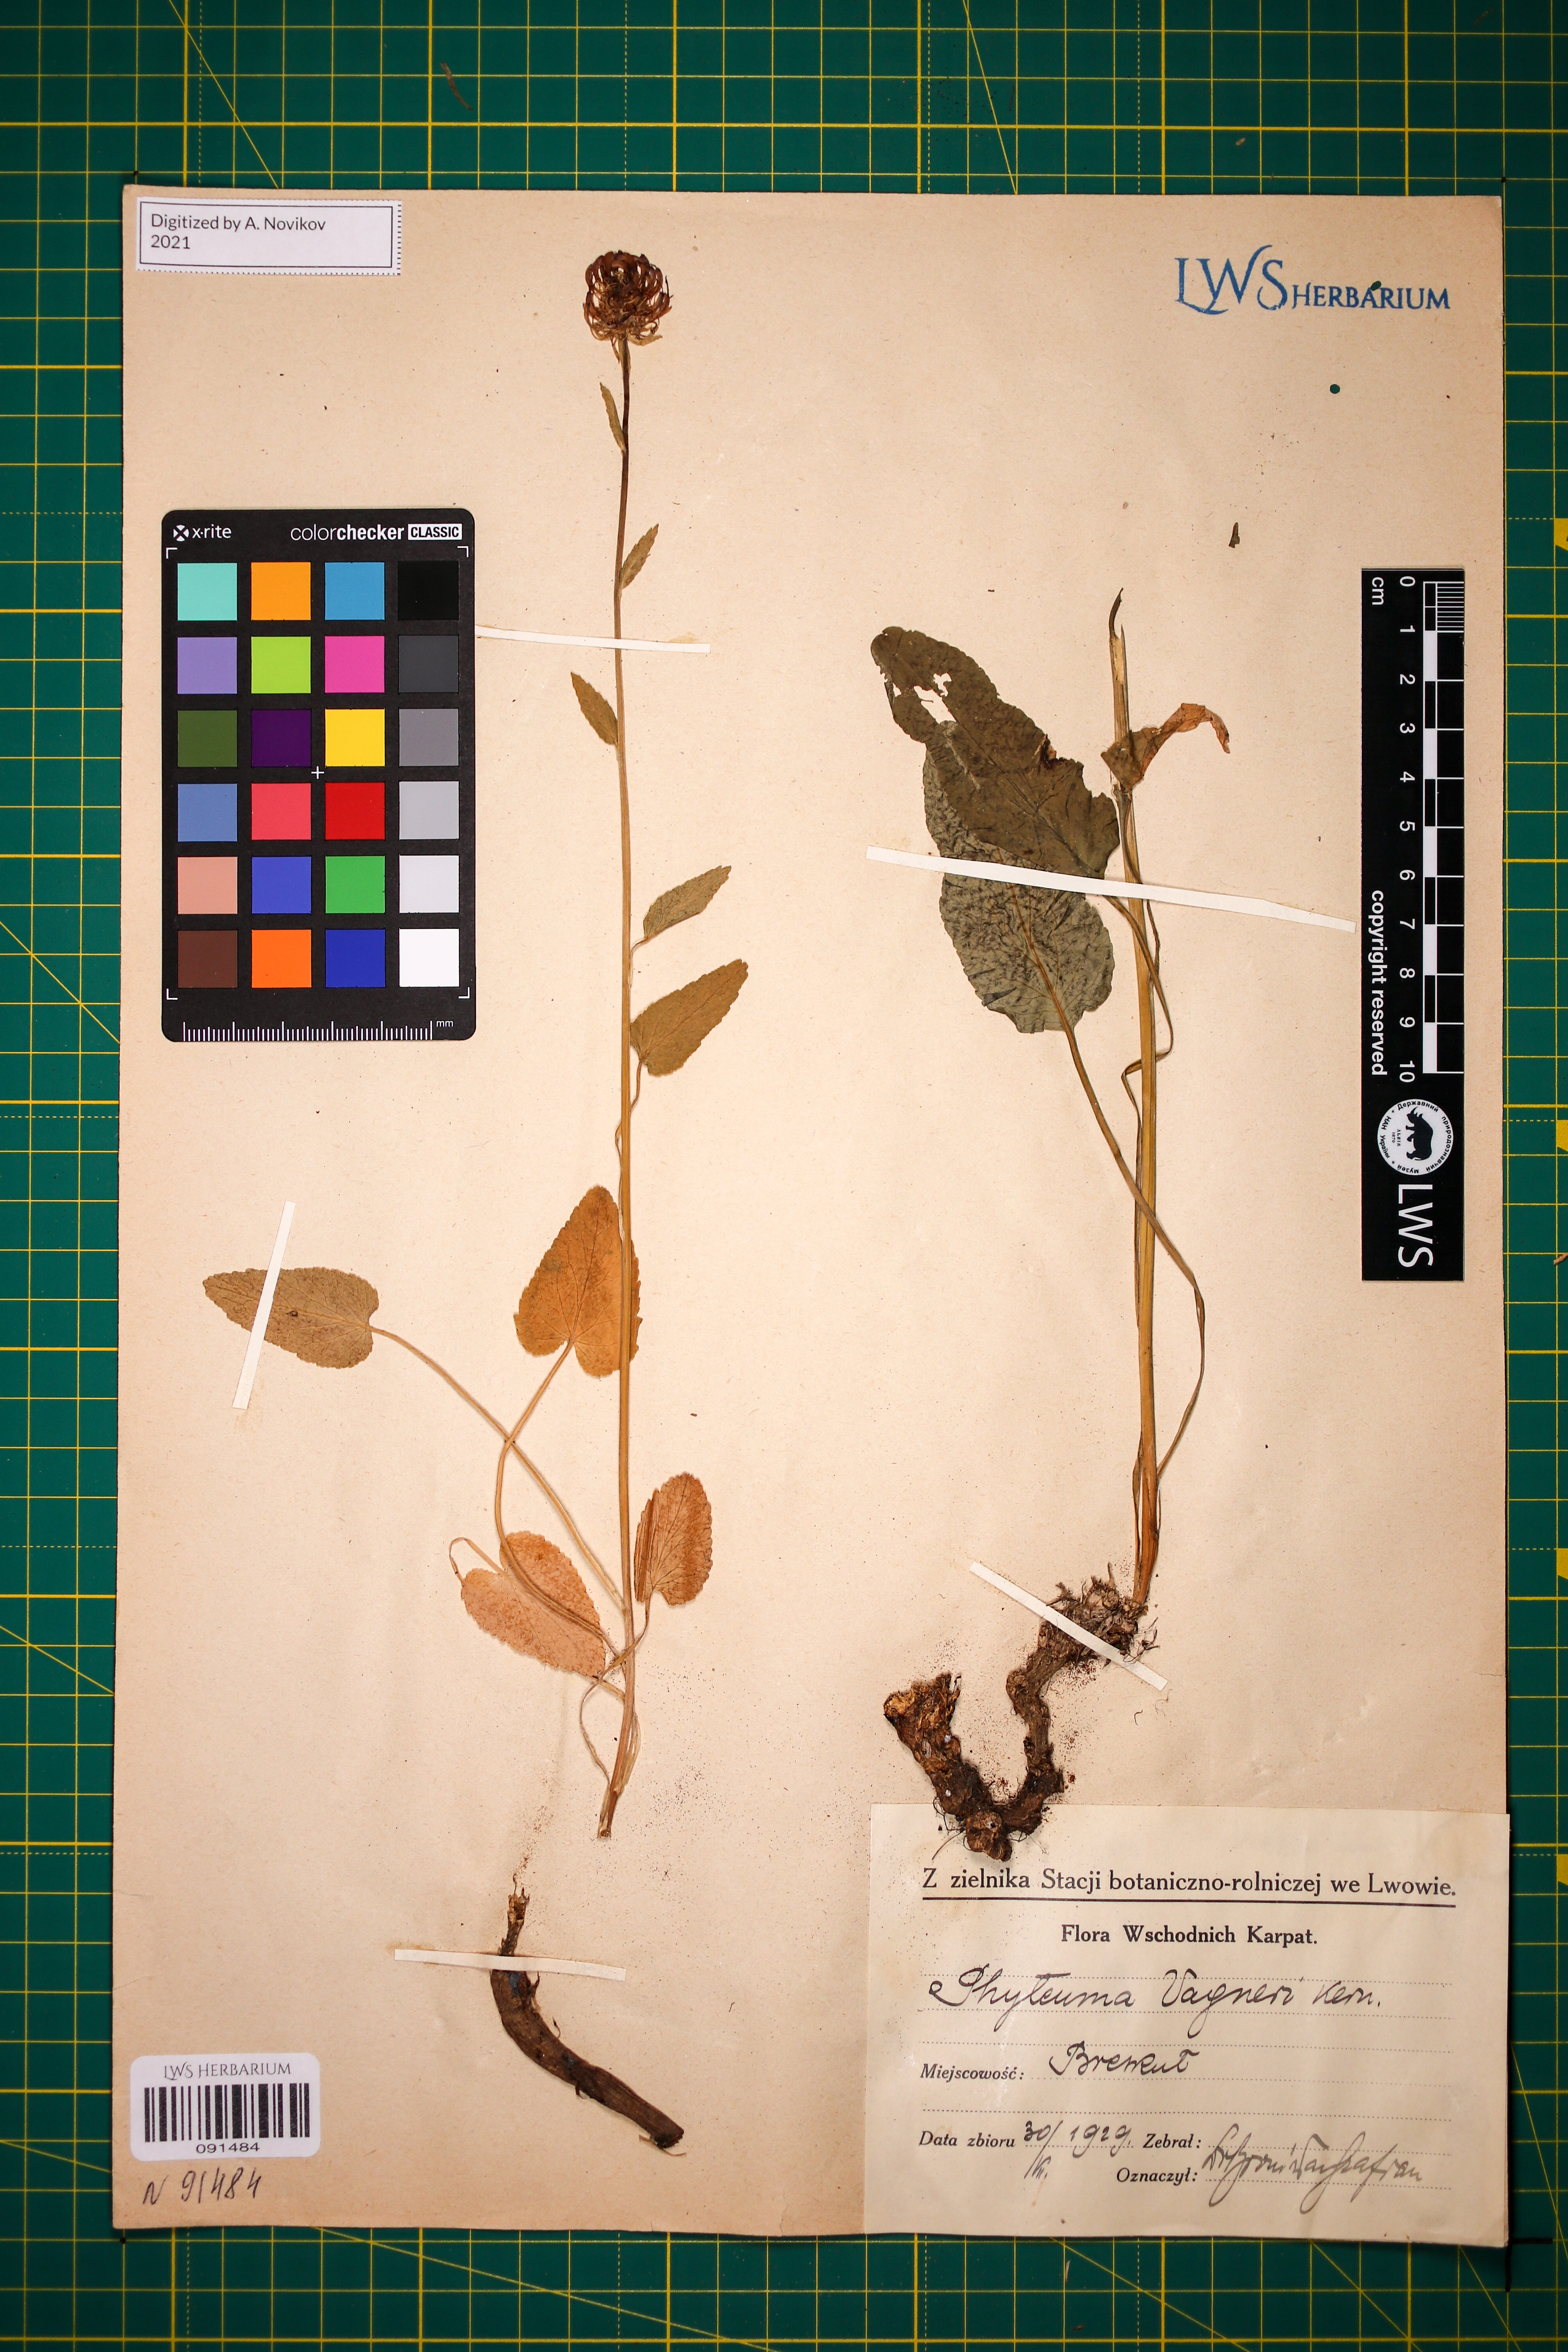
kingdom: Plantae
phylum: Tracheophyta
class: Magnoliopsida
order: Asterales
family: Campanulaceae
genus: Phyteuma
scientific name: Phyteuma vagneri
